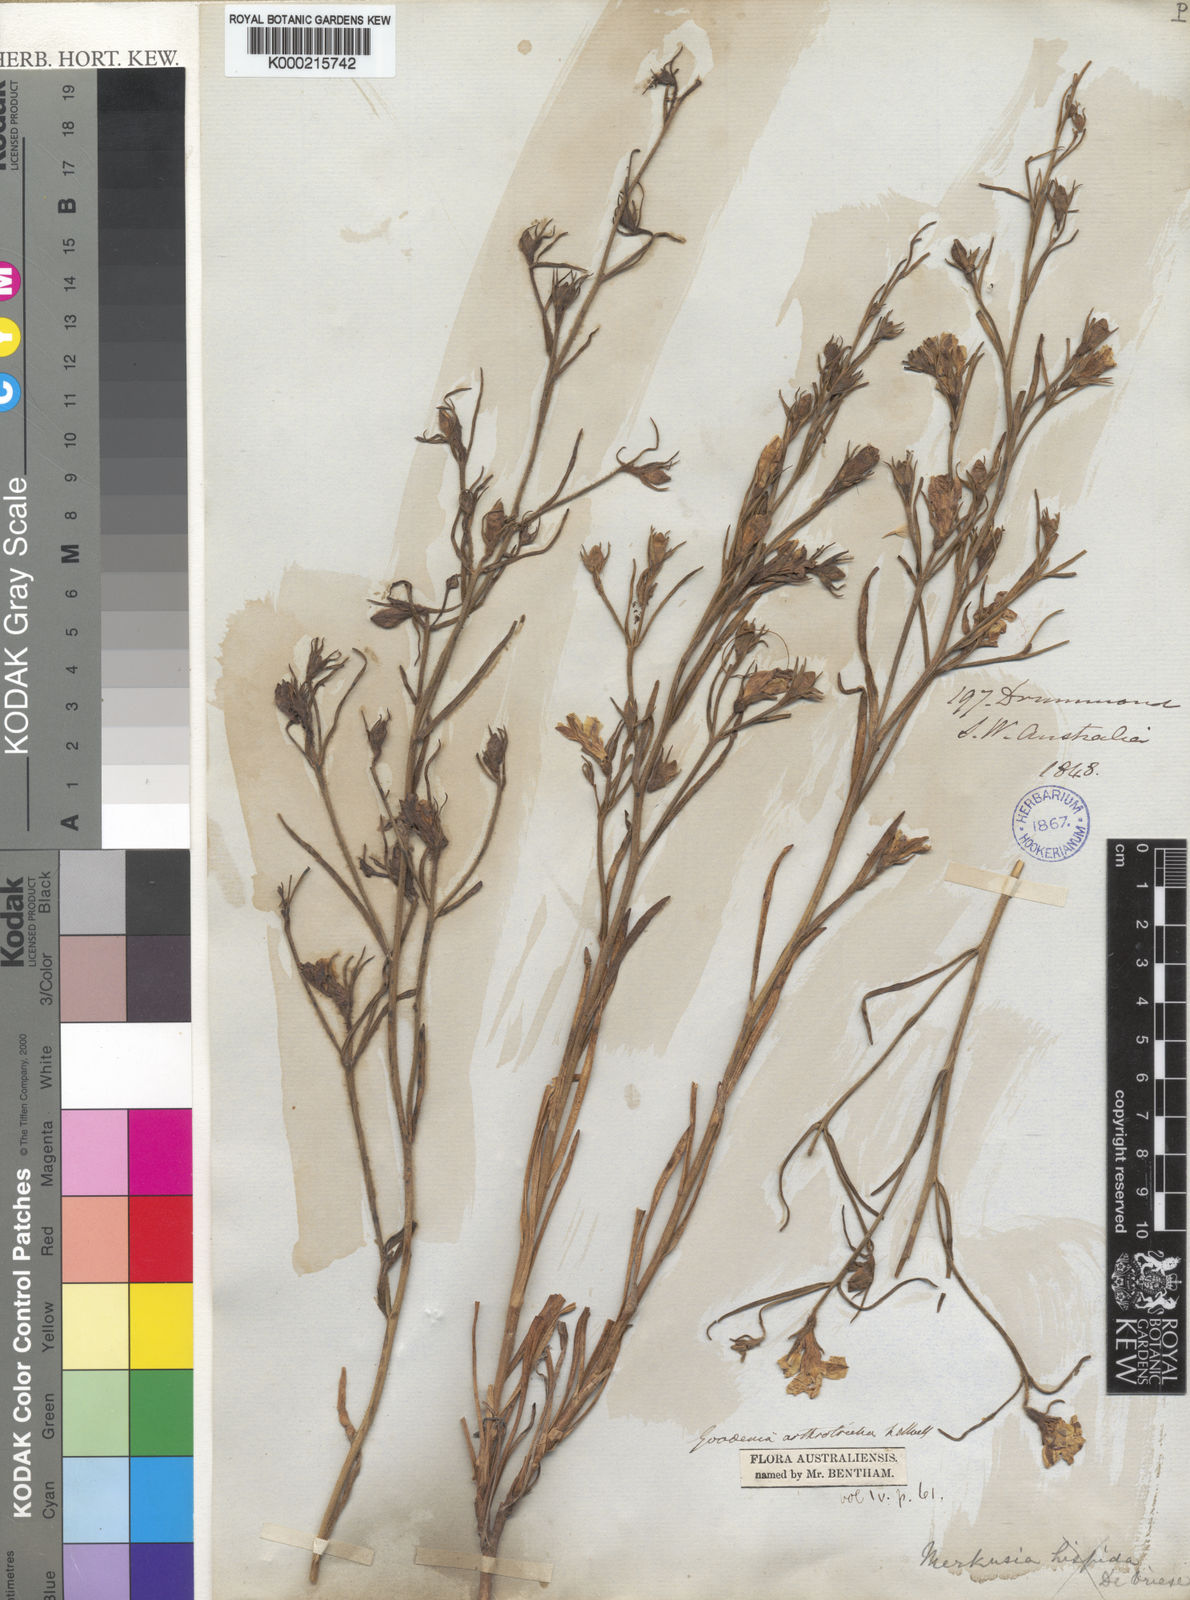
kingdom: Plantae
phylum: Tracheophyta
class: Magnoliopsida
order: Asterales
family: Goodeniaceae
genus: Goodenia
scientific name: Goodenia arthrotricha
